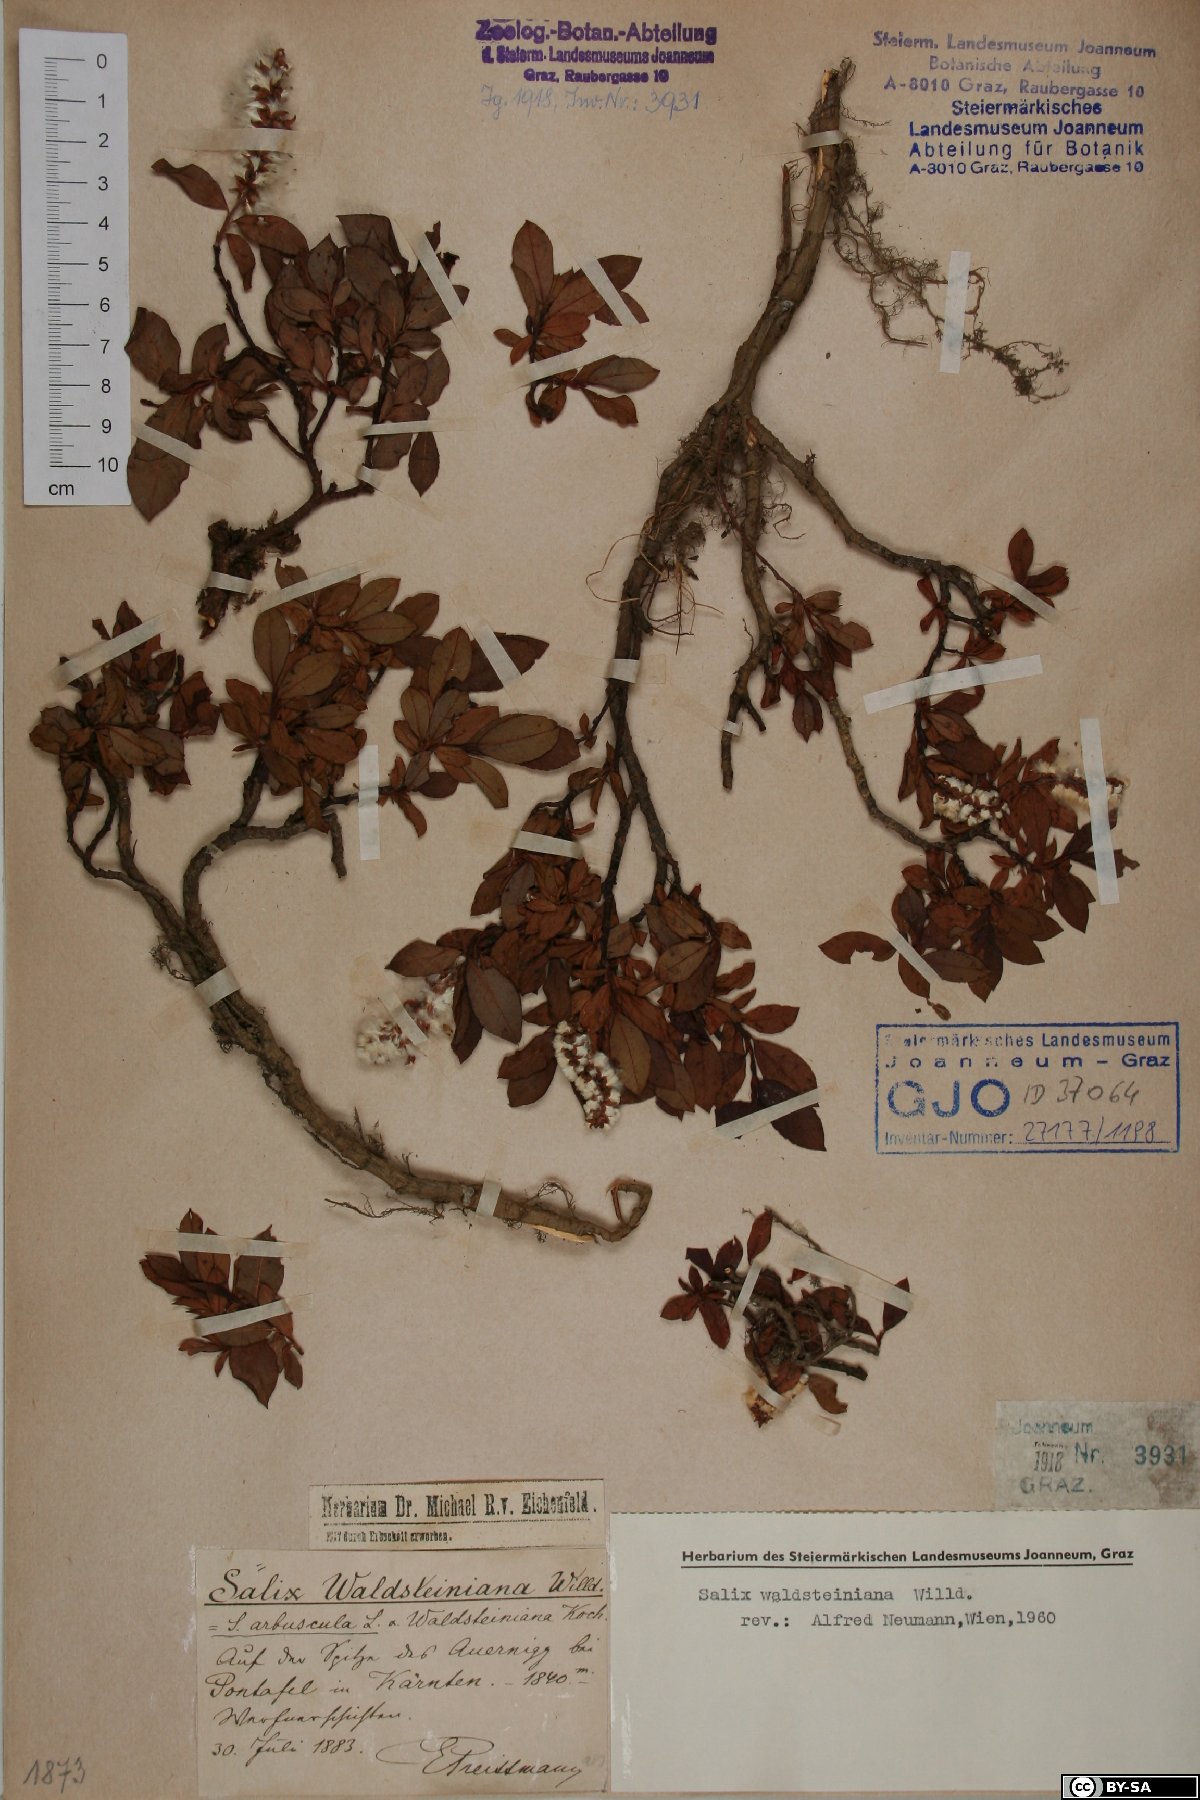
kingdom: Plantae
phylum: Tracheophyta
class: Magnoliopsida
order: Malpighiales
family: Salicaceae
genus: Salix
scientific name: Salix waldsteiniana
